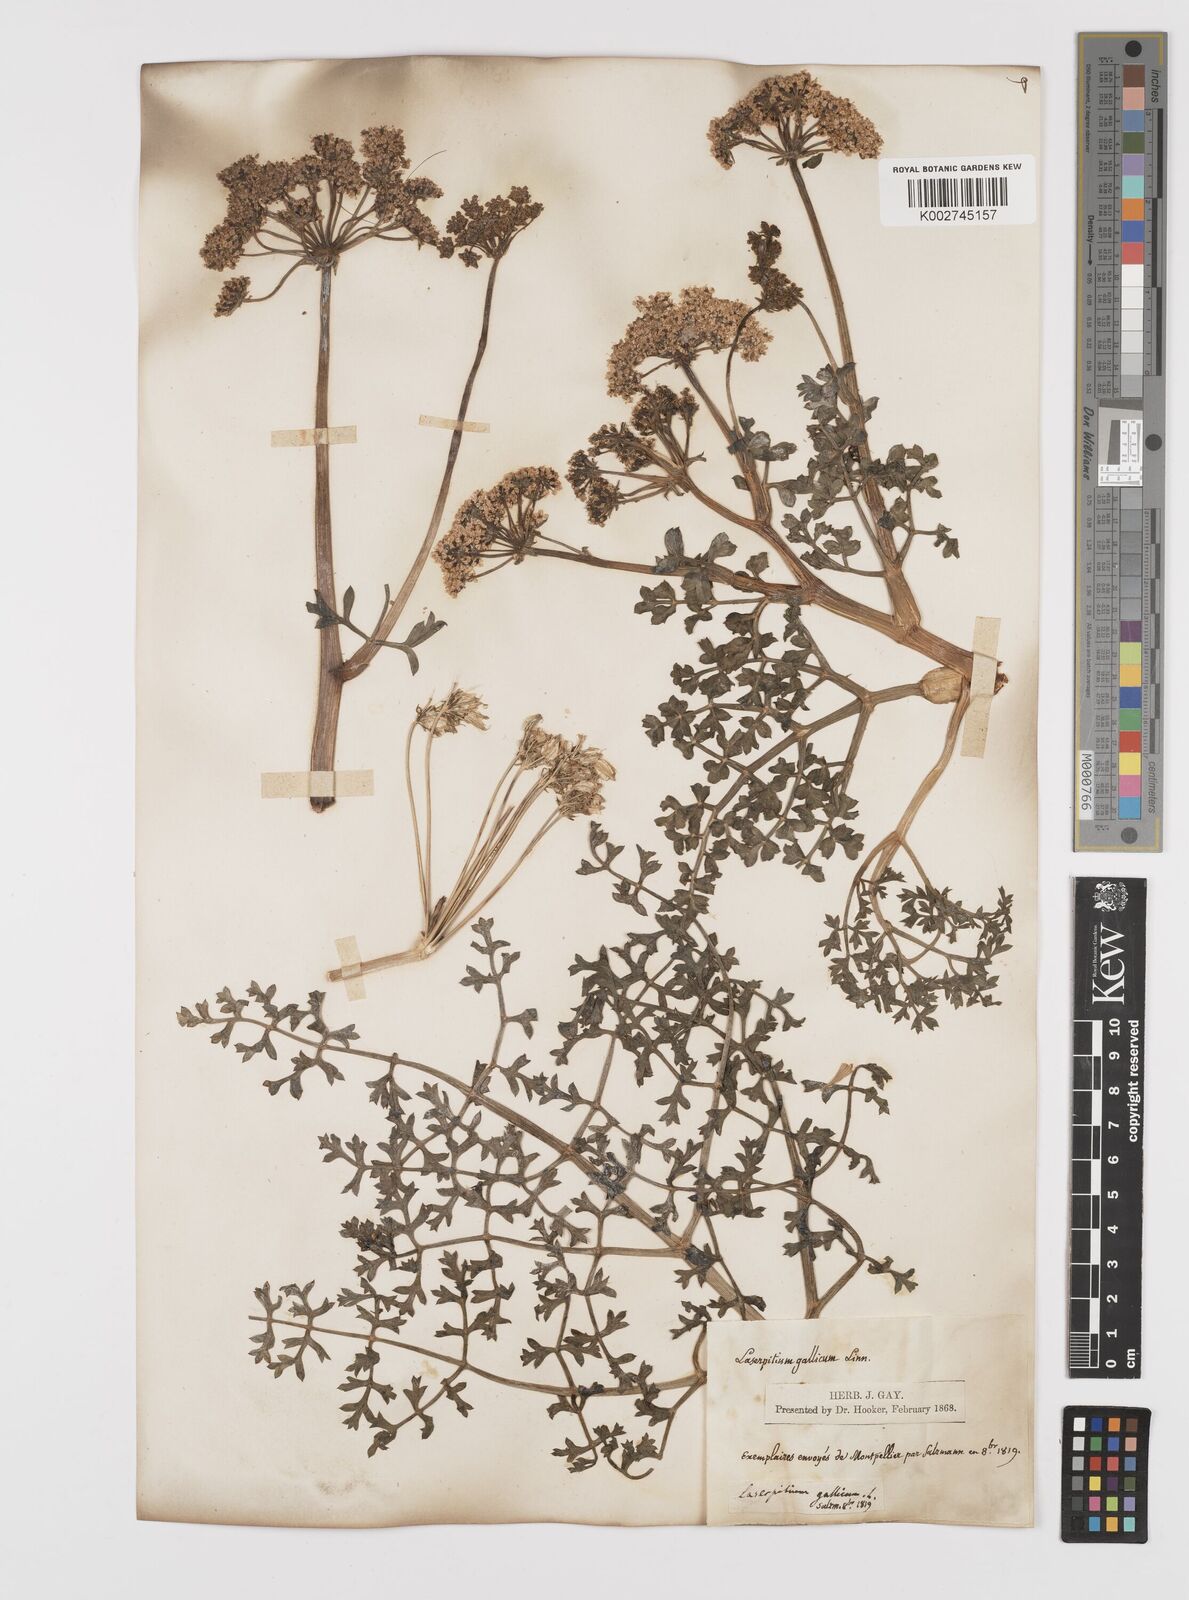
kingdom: Plantae
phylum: Tracheophyta
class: Magnoliopsida
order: Apiales
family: Apiaceae
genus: Laserpitium
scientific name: Laserpitium gallicum
